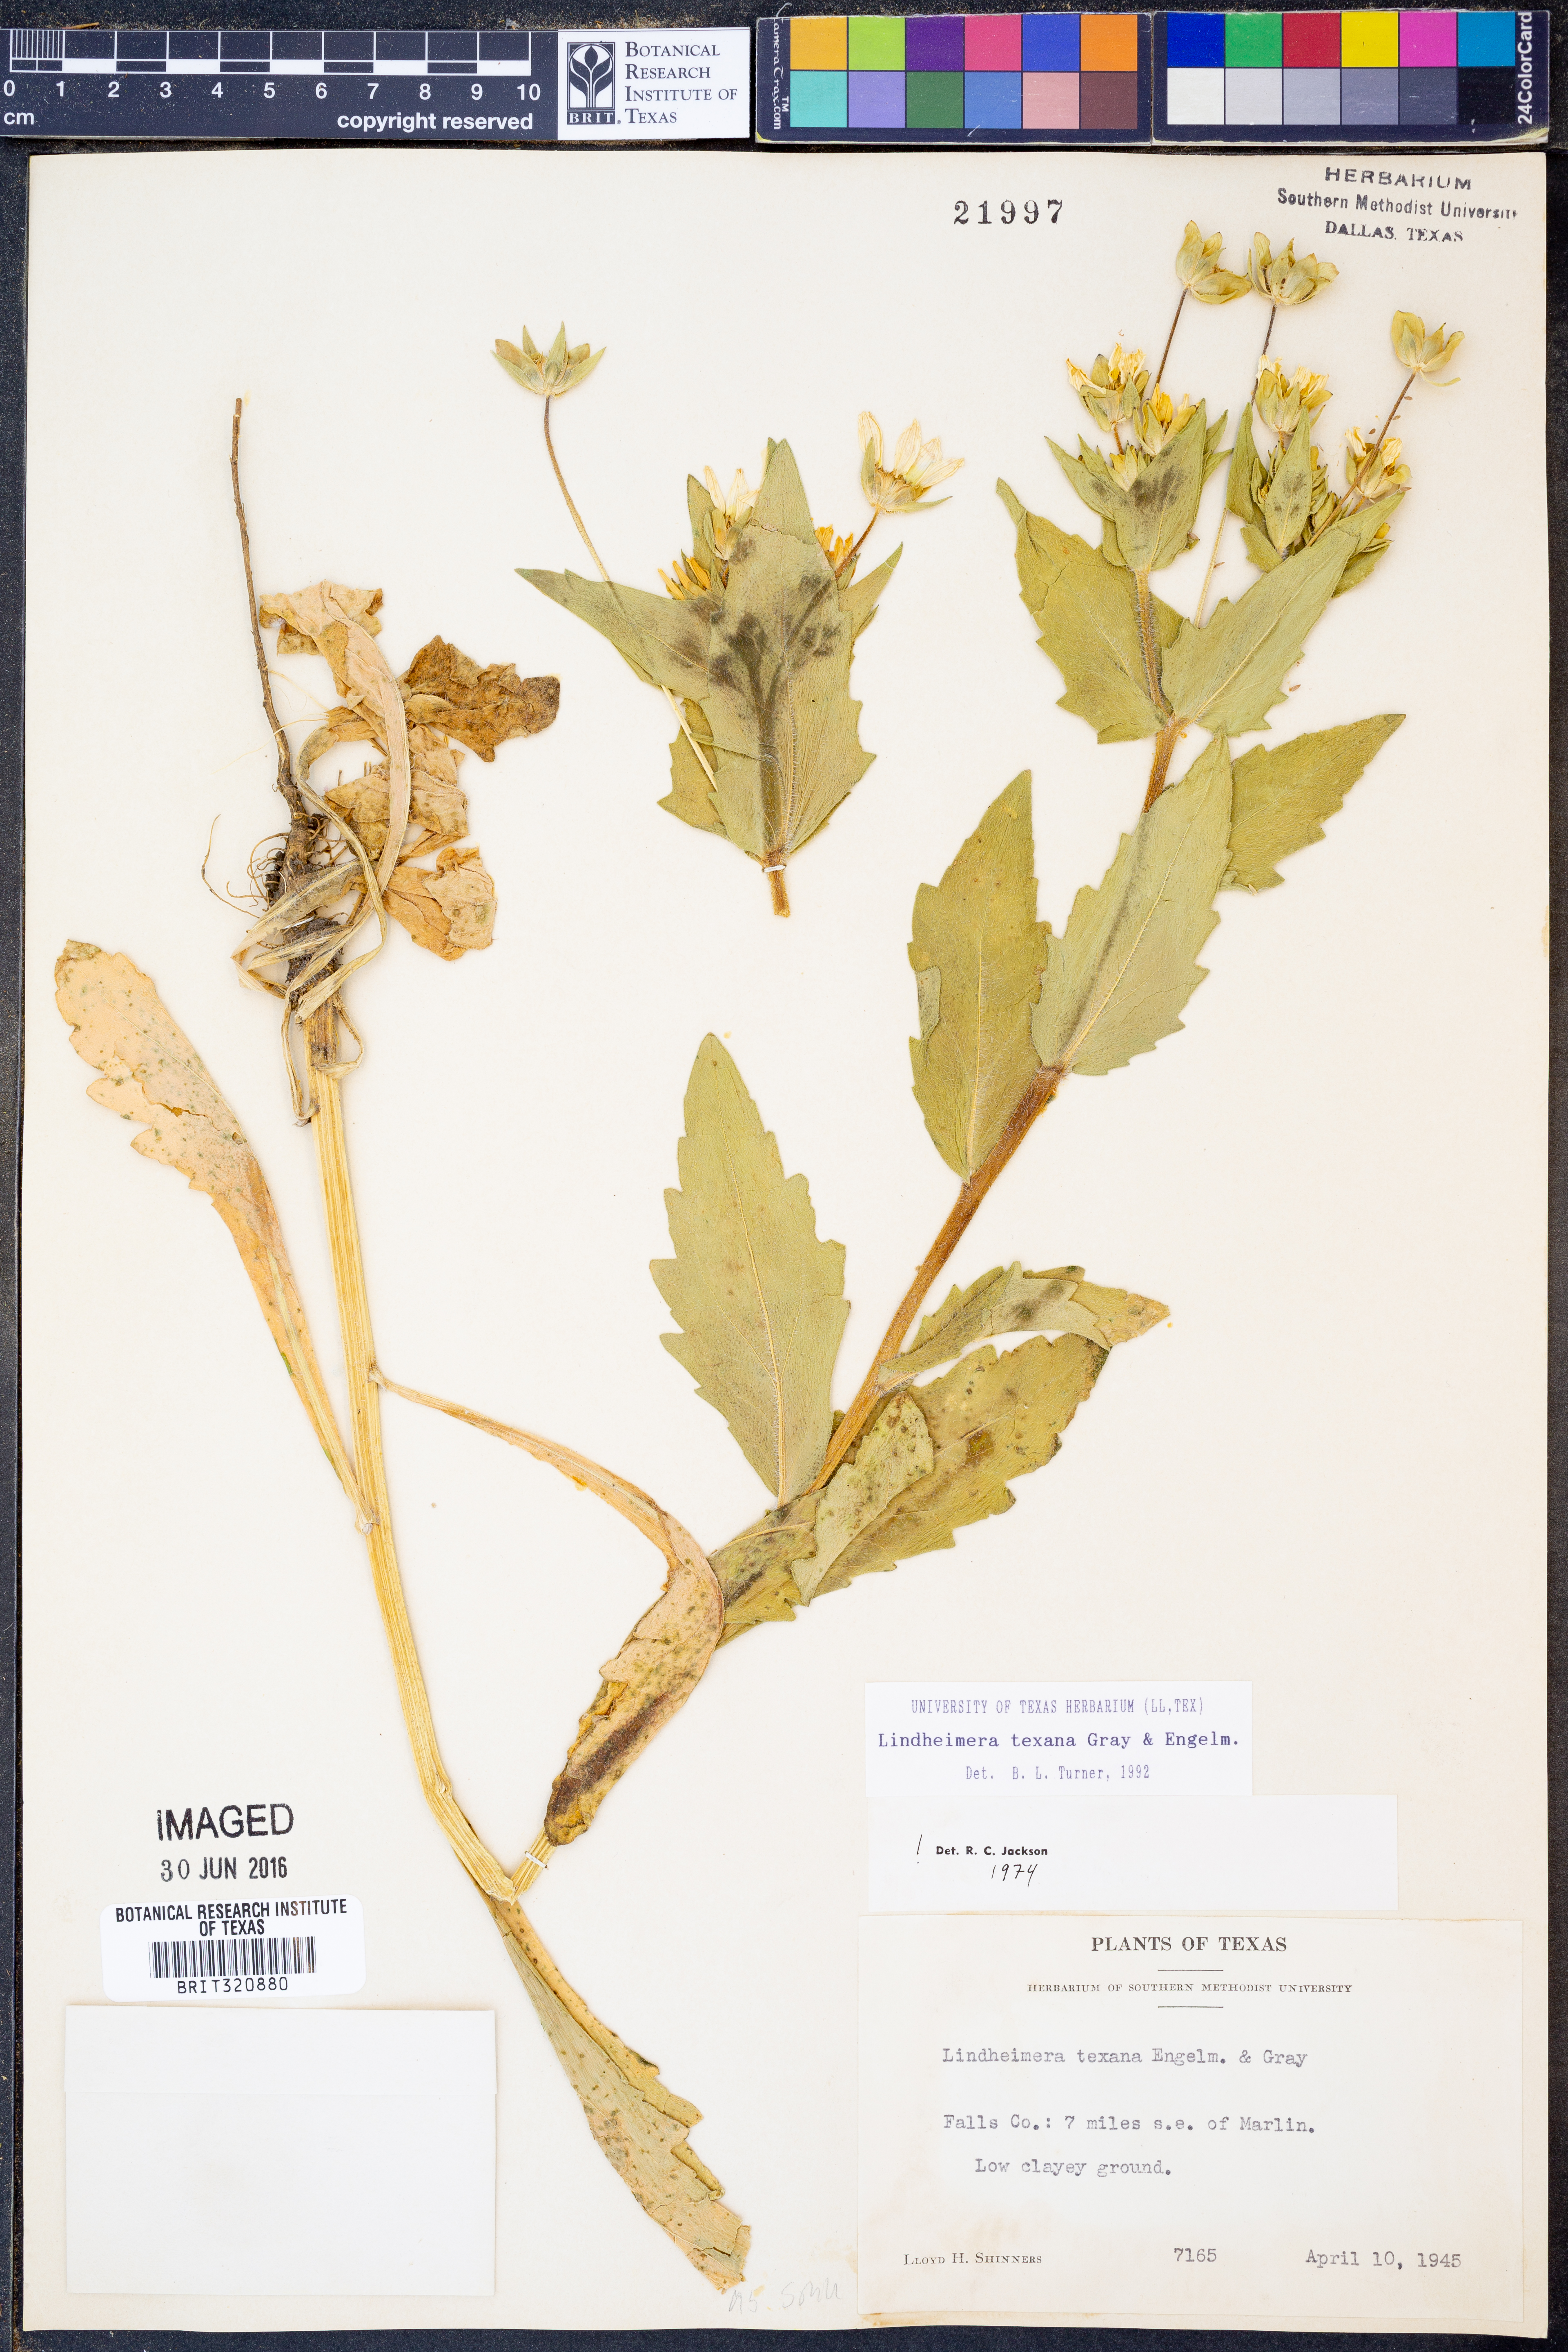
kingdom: Plantae
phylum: Tracheophyta
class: Magnoliopsida
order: Asterales
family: Asteraceae
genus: Lindheimera
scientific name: Lindheimera texana
